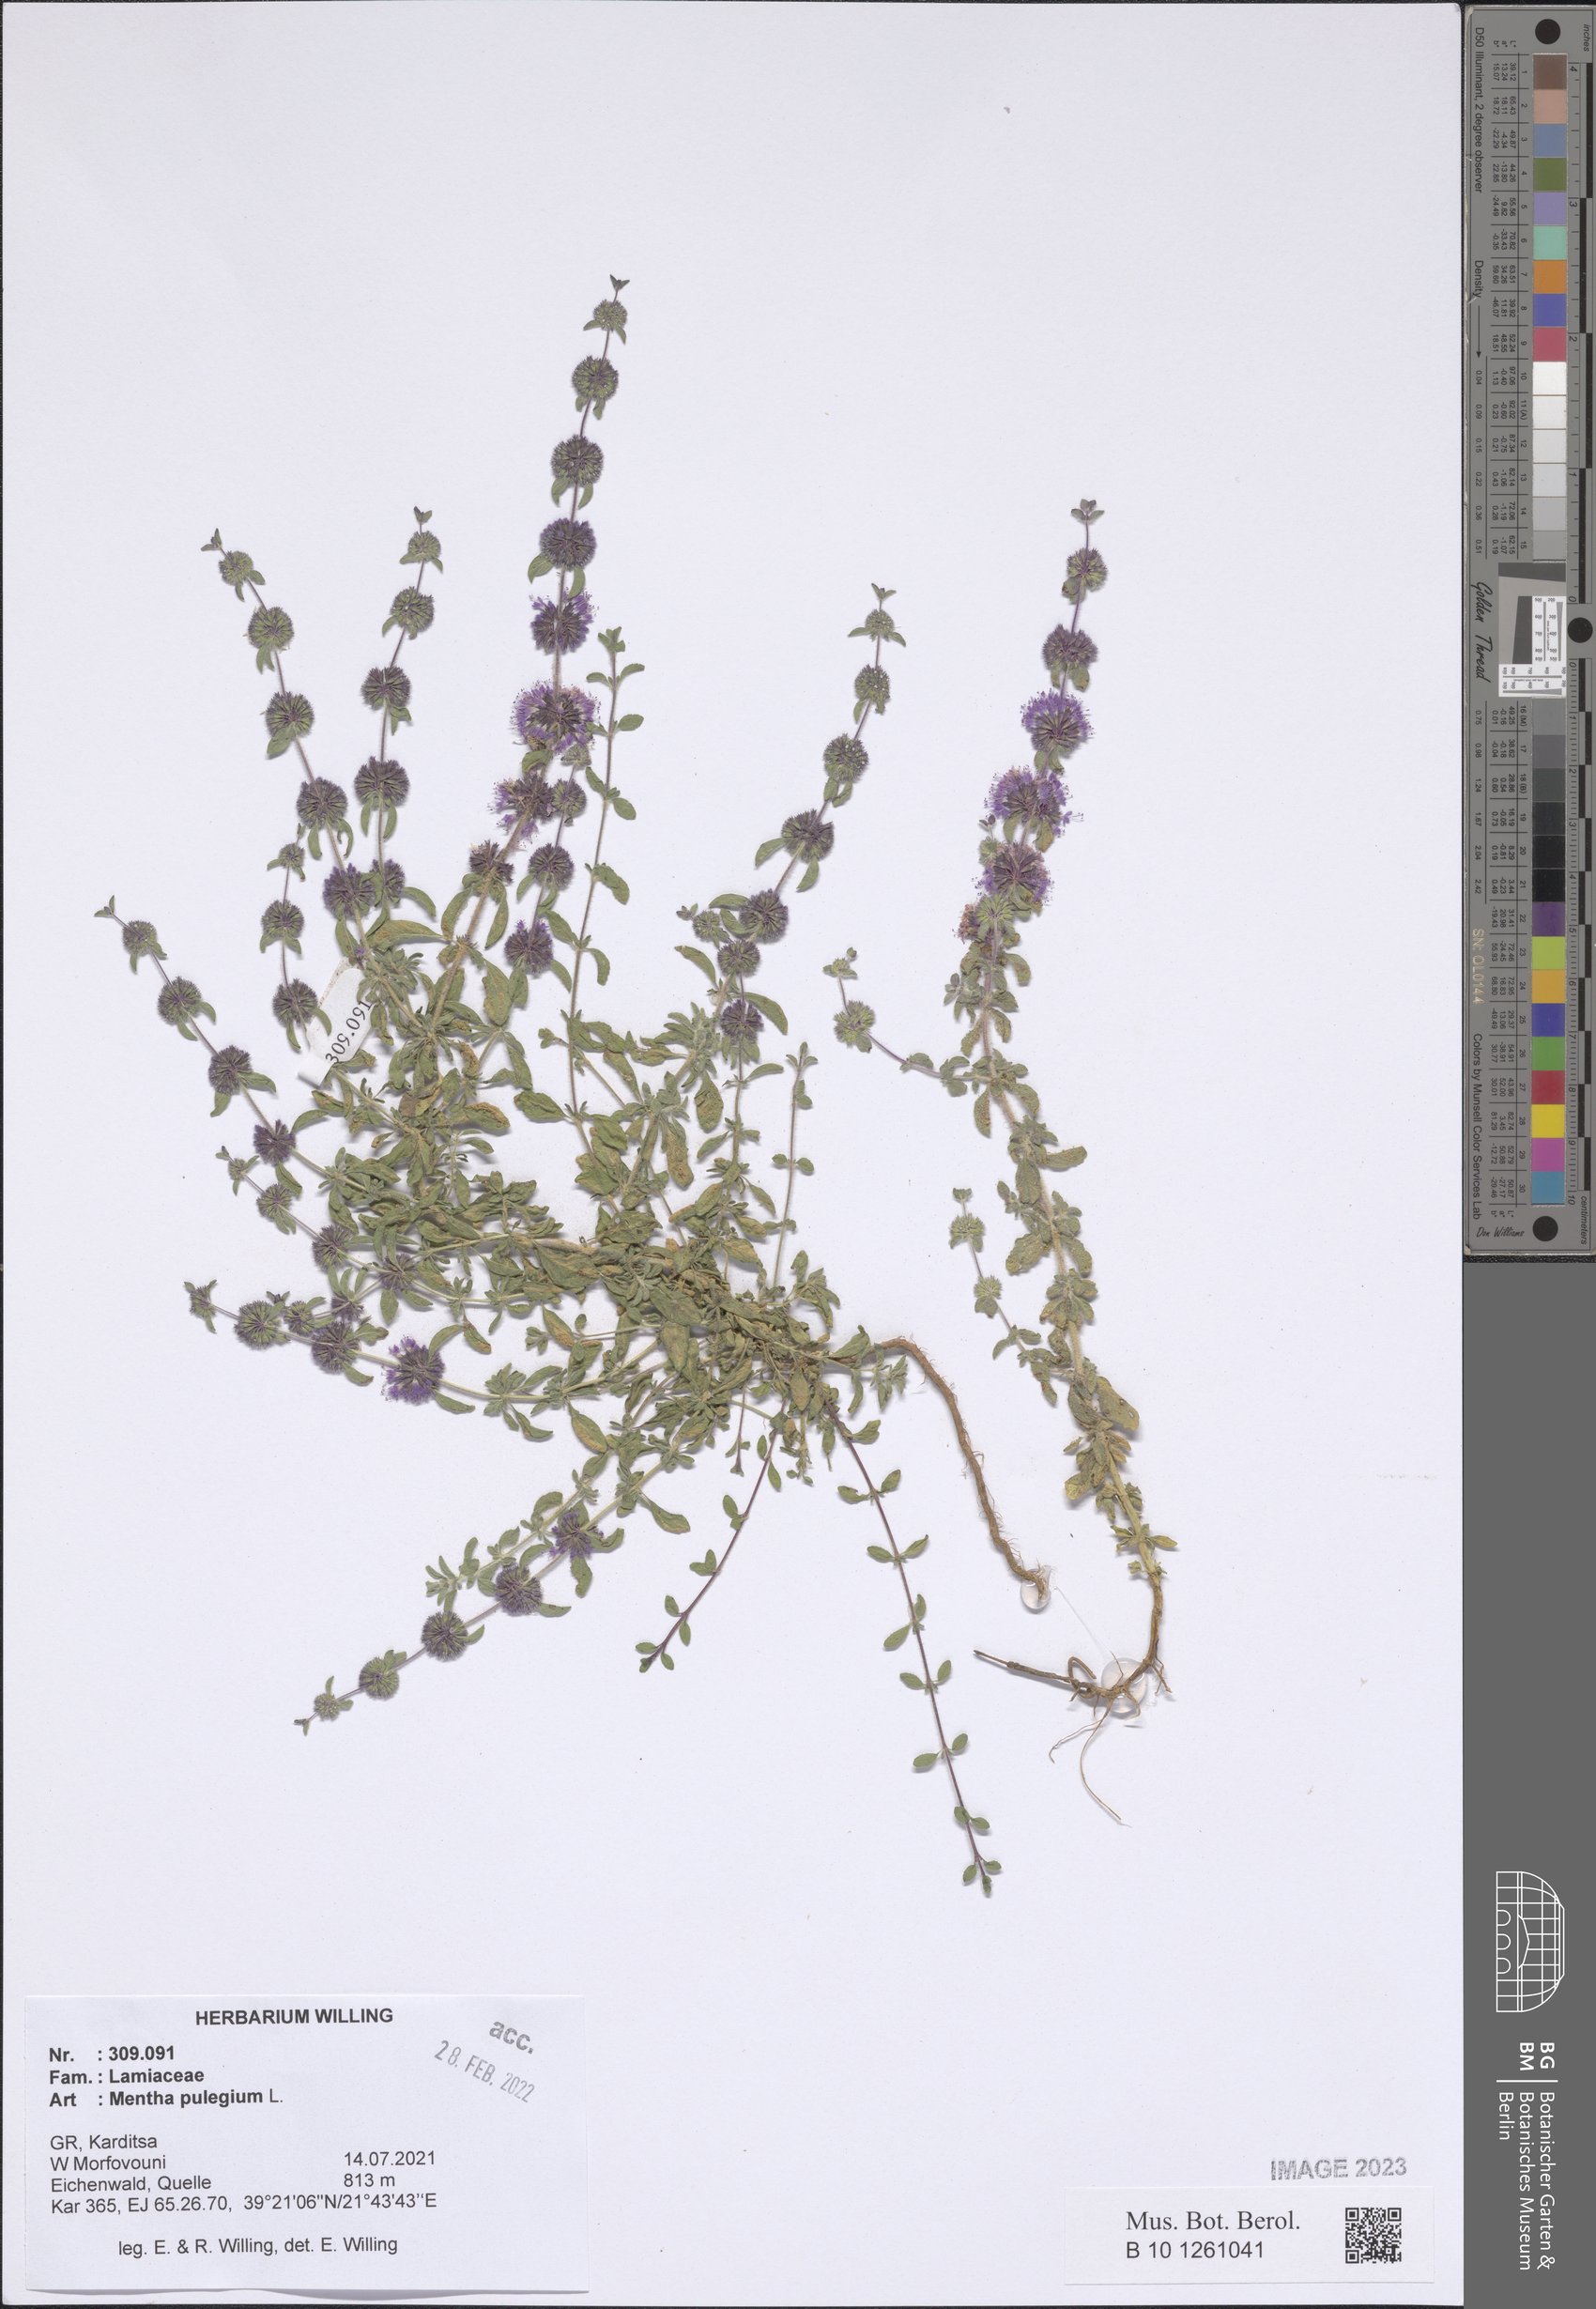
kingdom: Plantae
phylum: Tracheophyta
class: Magnoliopsida
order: Lamiales
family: Lamiaceae
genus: Mentha
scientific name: Mentha pulegium
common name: Pennyroyal
